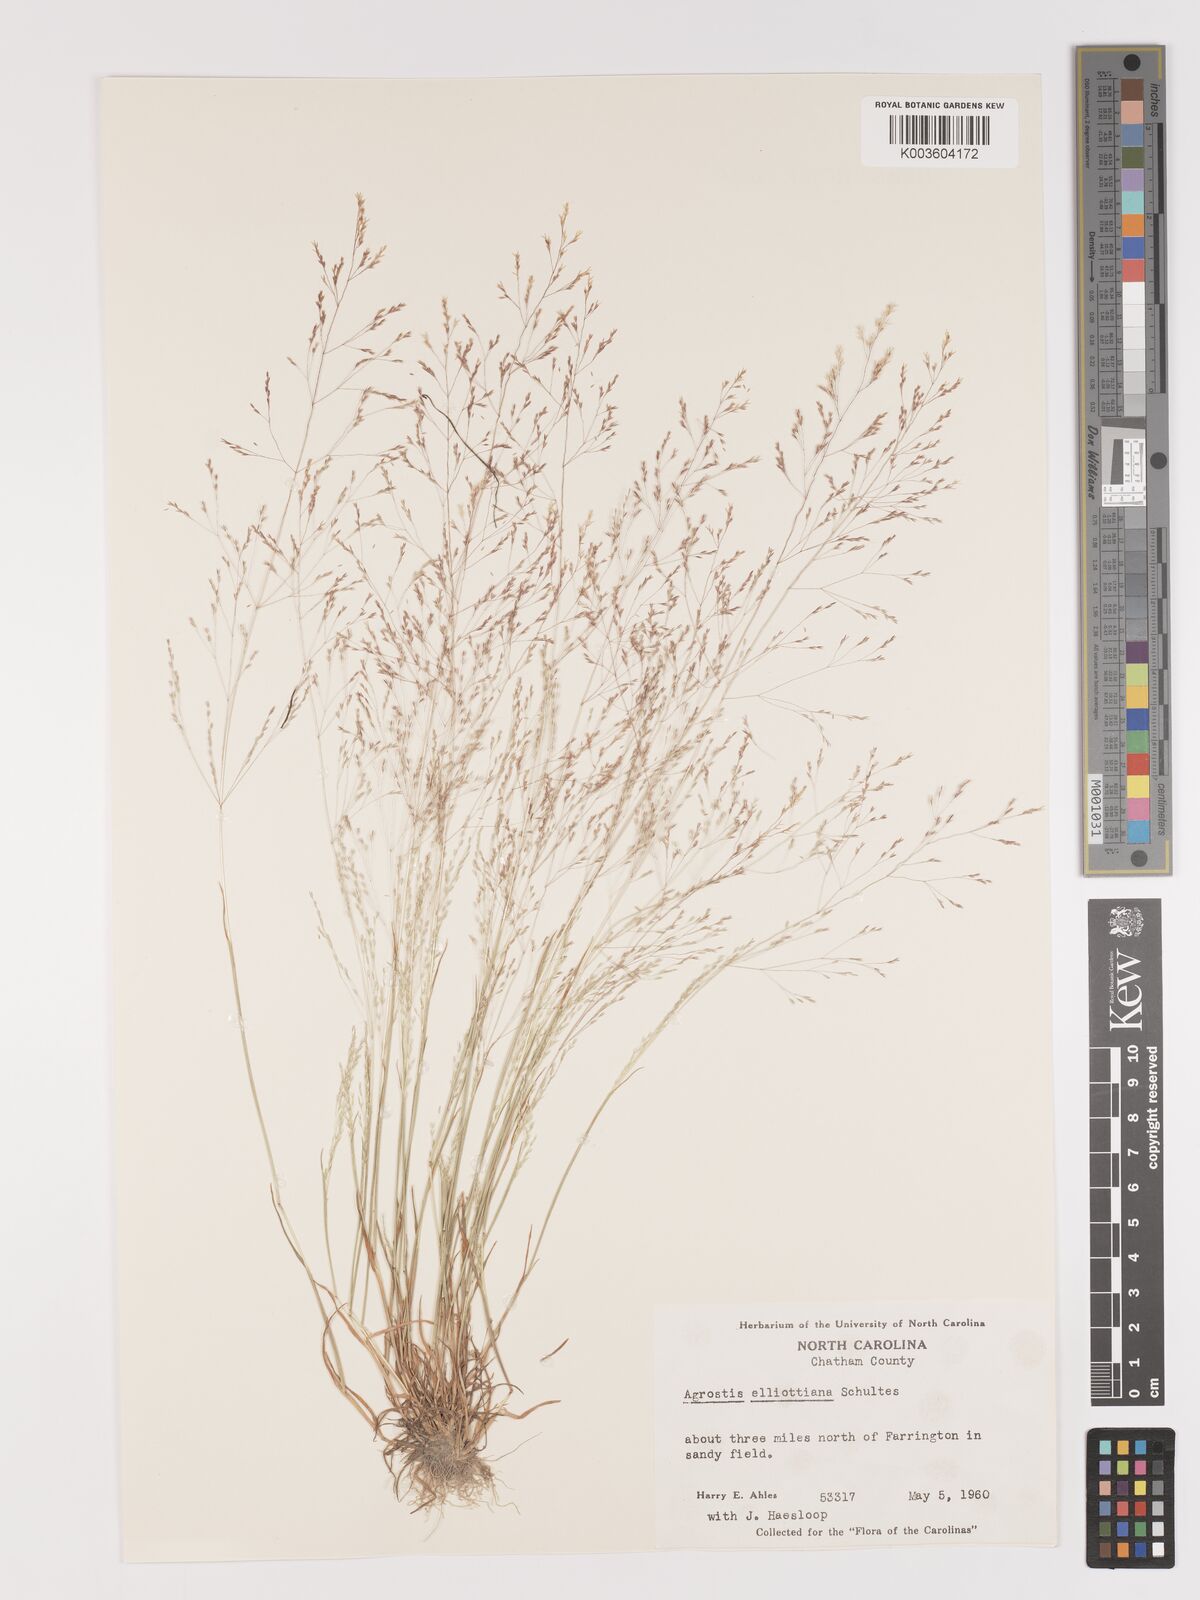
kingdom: Plantae
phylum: Tracheophyta
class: Liliopsida
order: Poales
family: Poaceae
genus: Agrostis
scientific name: Agrostis elliottiana
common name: Elliott's bent
